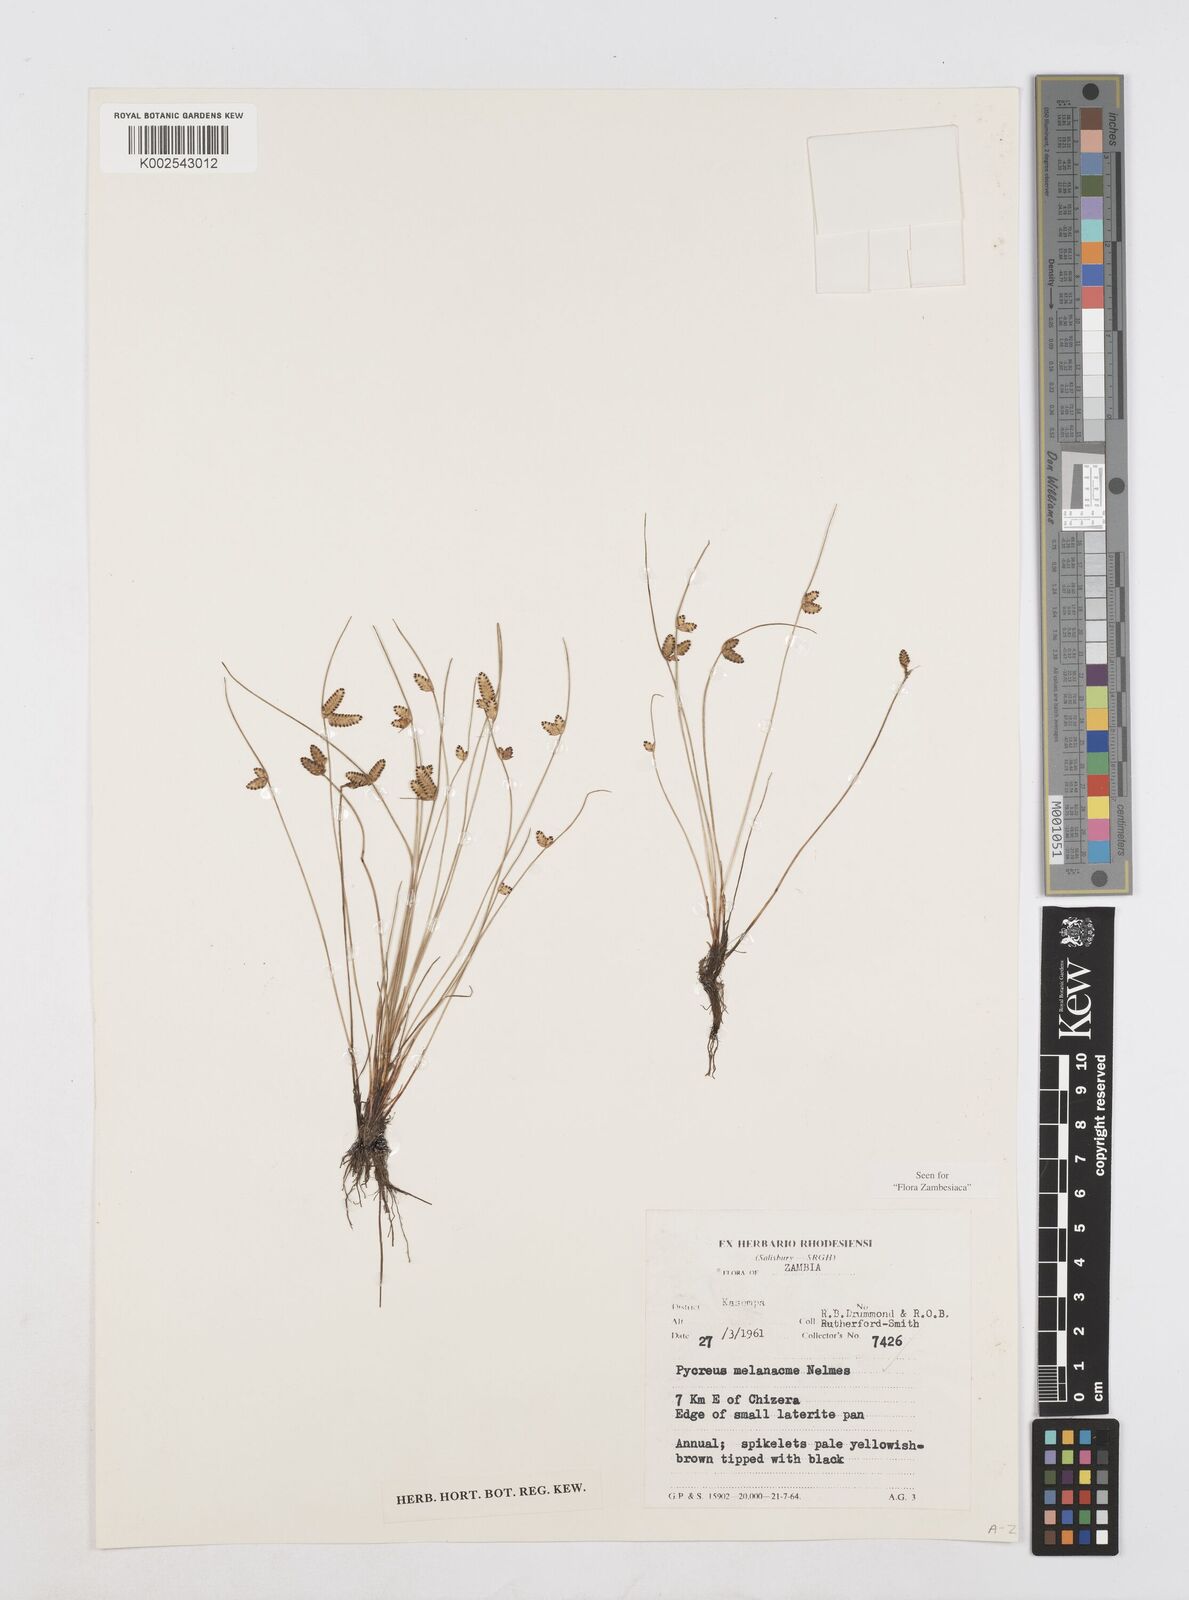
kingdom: Plantae
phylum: Tracheophyta
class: Liliopsida
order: Poales
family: Cyperaceae
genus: Cyperus
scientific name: Cyperus melanacme
